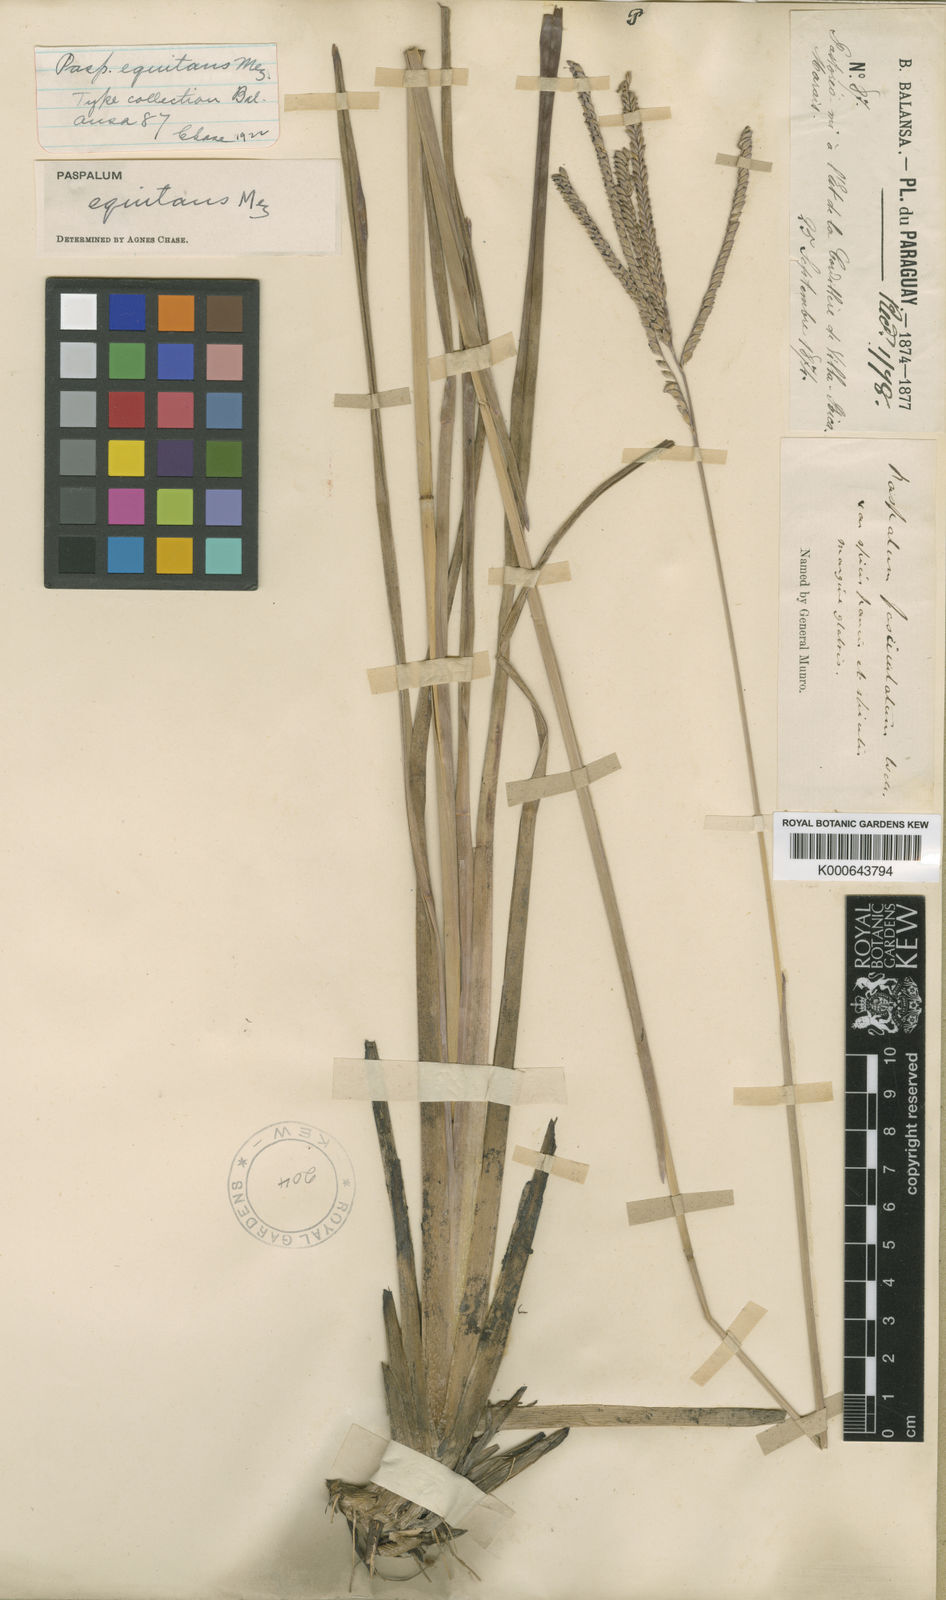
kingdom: Plantae
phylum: Tracheophyta
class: Liliopsida
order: Poales
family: Poaceae
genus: Paspalum
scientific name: Paspalum equitans
